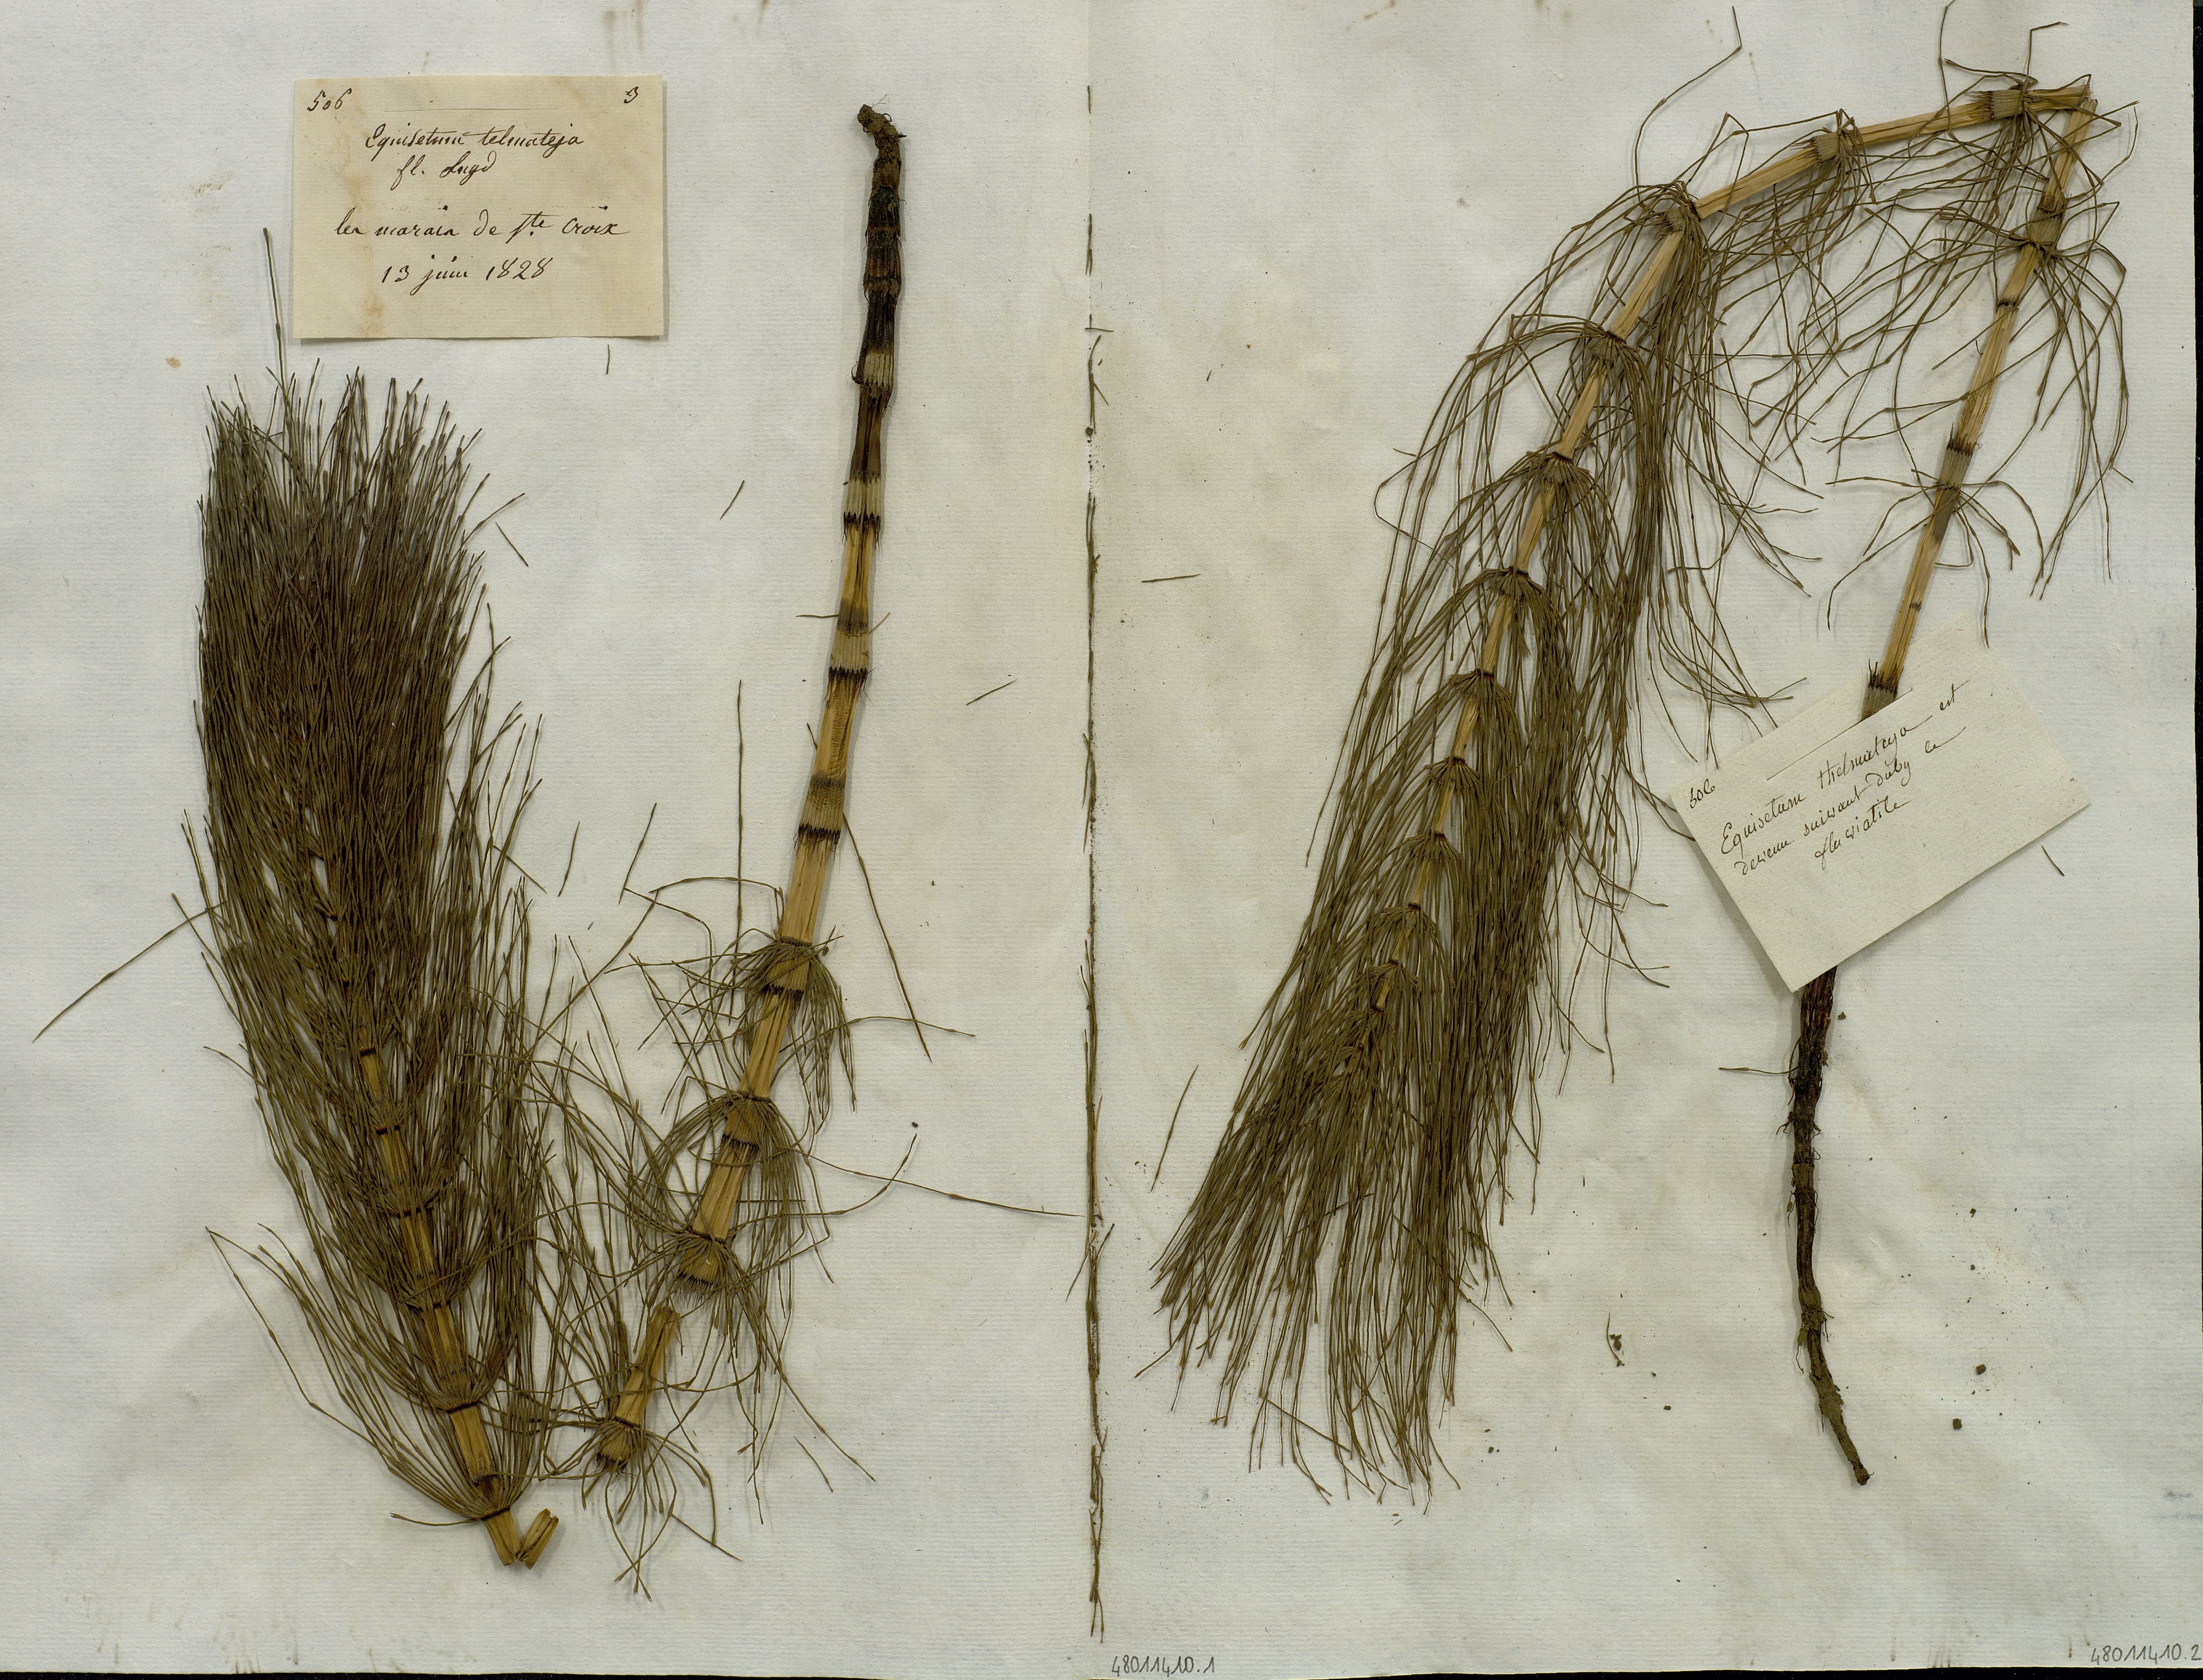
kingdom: Plantae
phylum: Tracheophyta
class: Polypodiopsida
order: Equisetales
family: Equisetaceae
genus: Equisetum
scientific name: Equisetum telmateia
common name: Great horsetail
